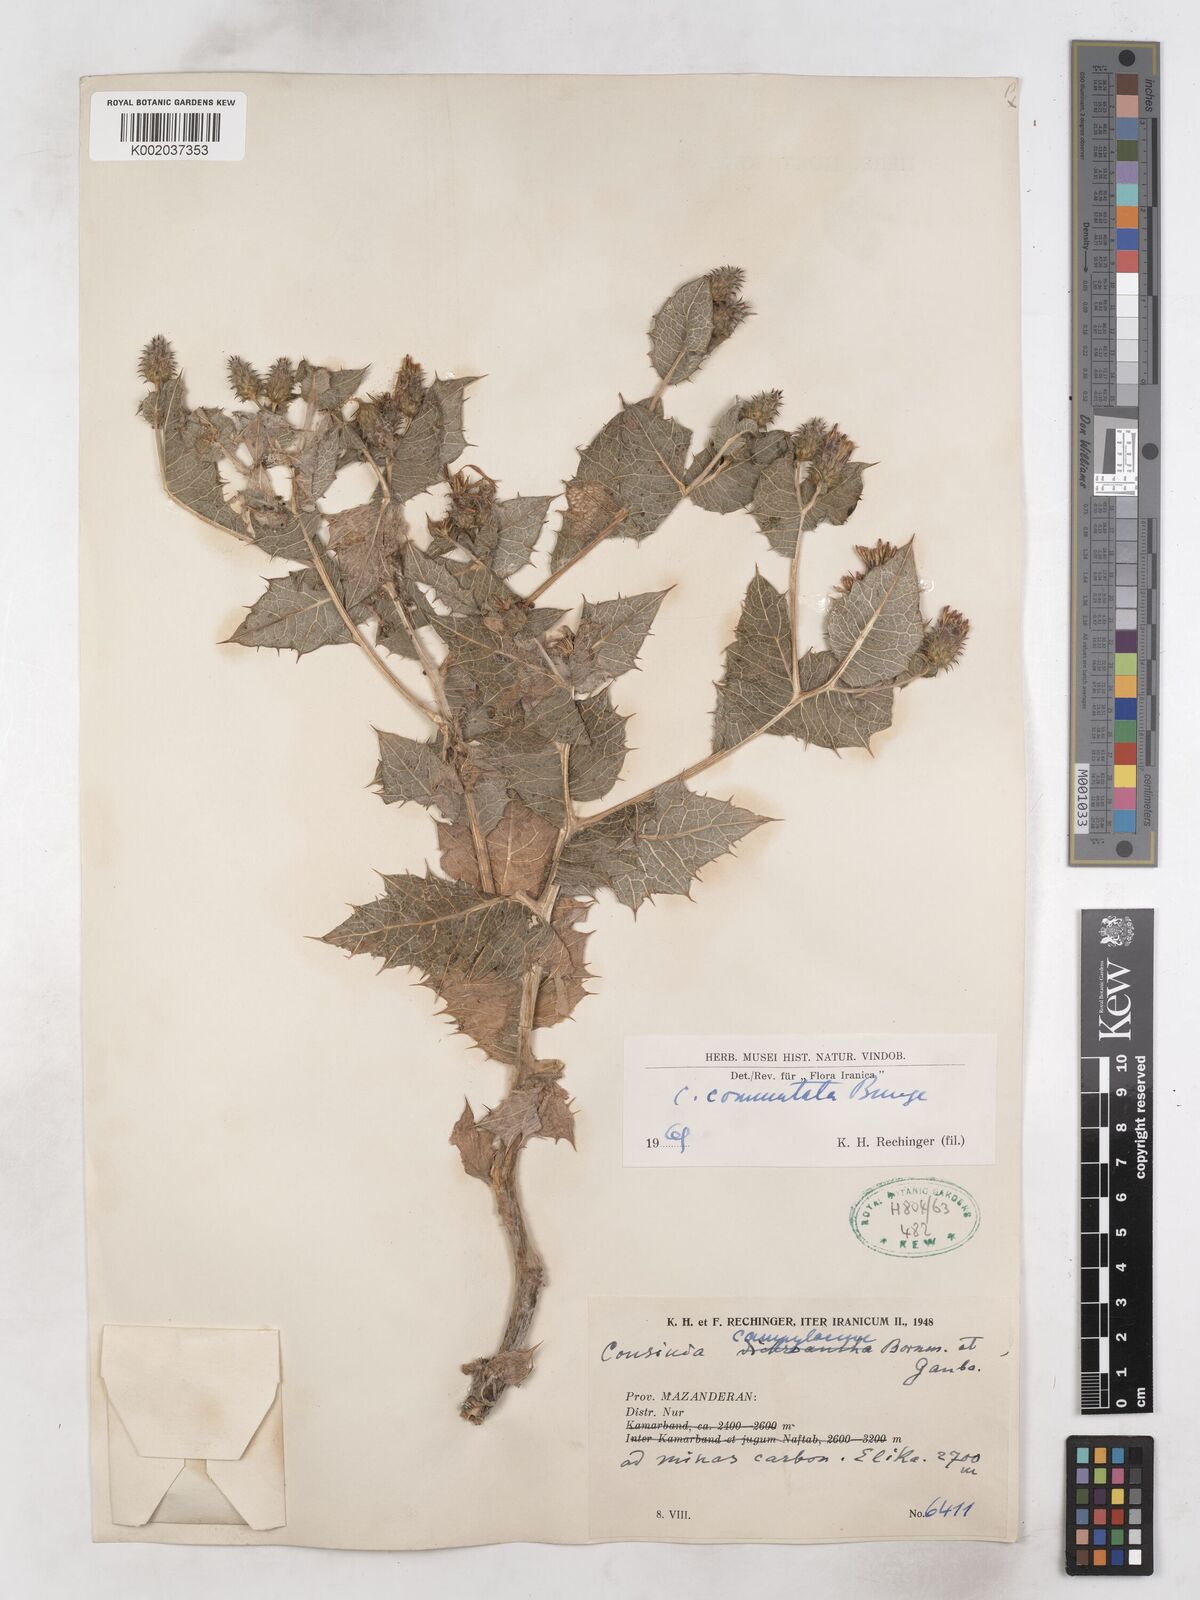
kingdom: Plantae
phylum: Tracheophyta
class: Magnoliopsida
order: Asterales
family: Asteraceae
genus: Cousinia
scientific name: Cousinia commutata
